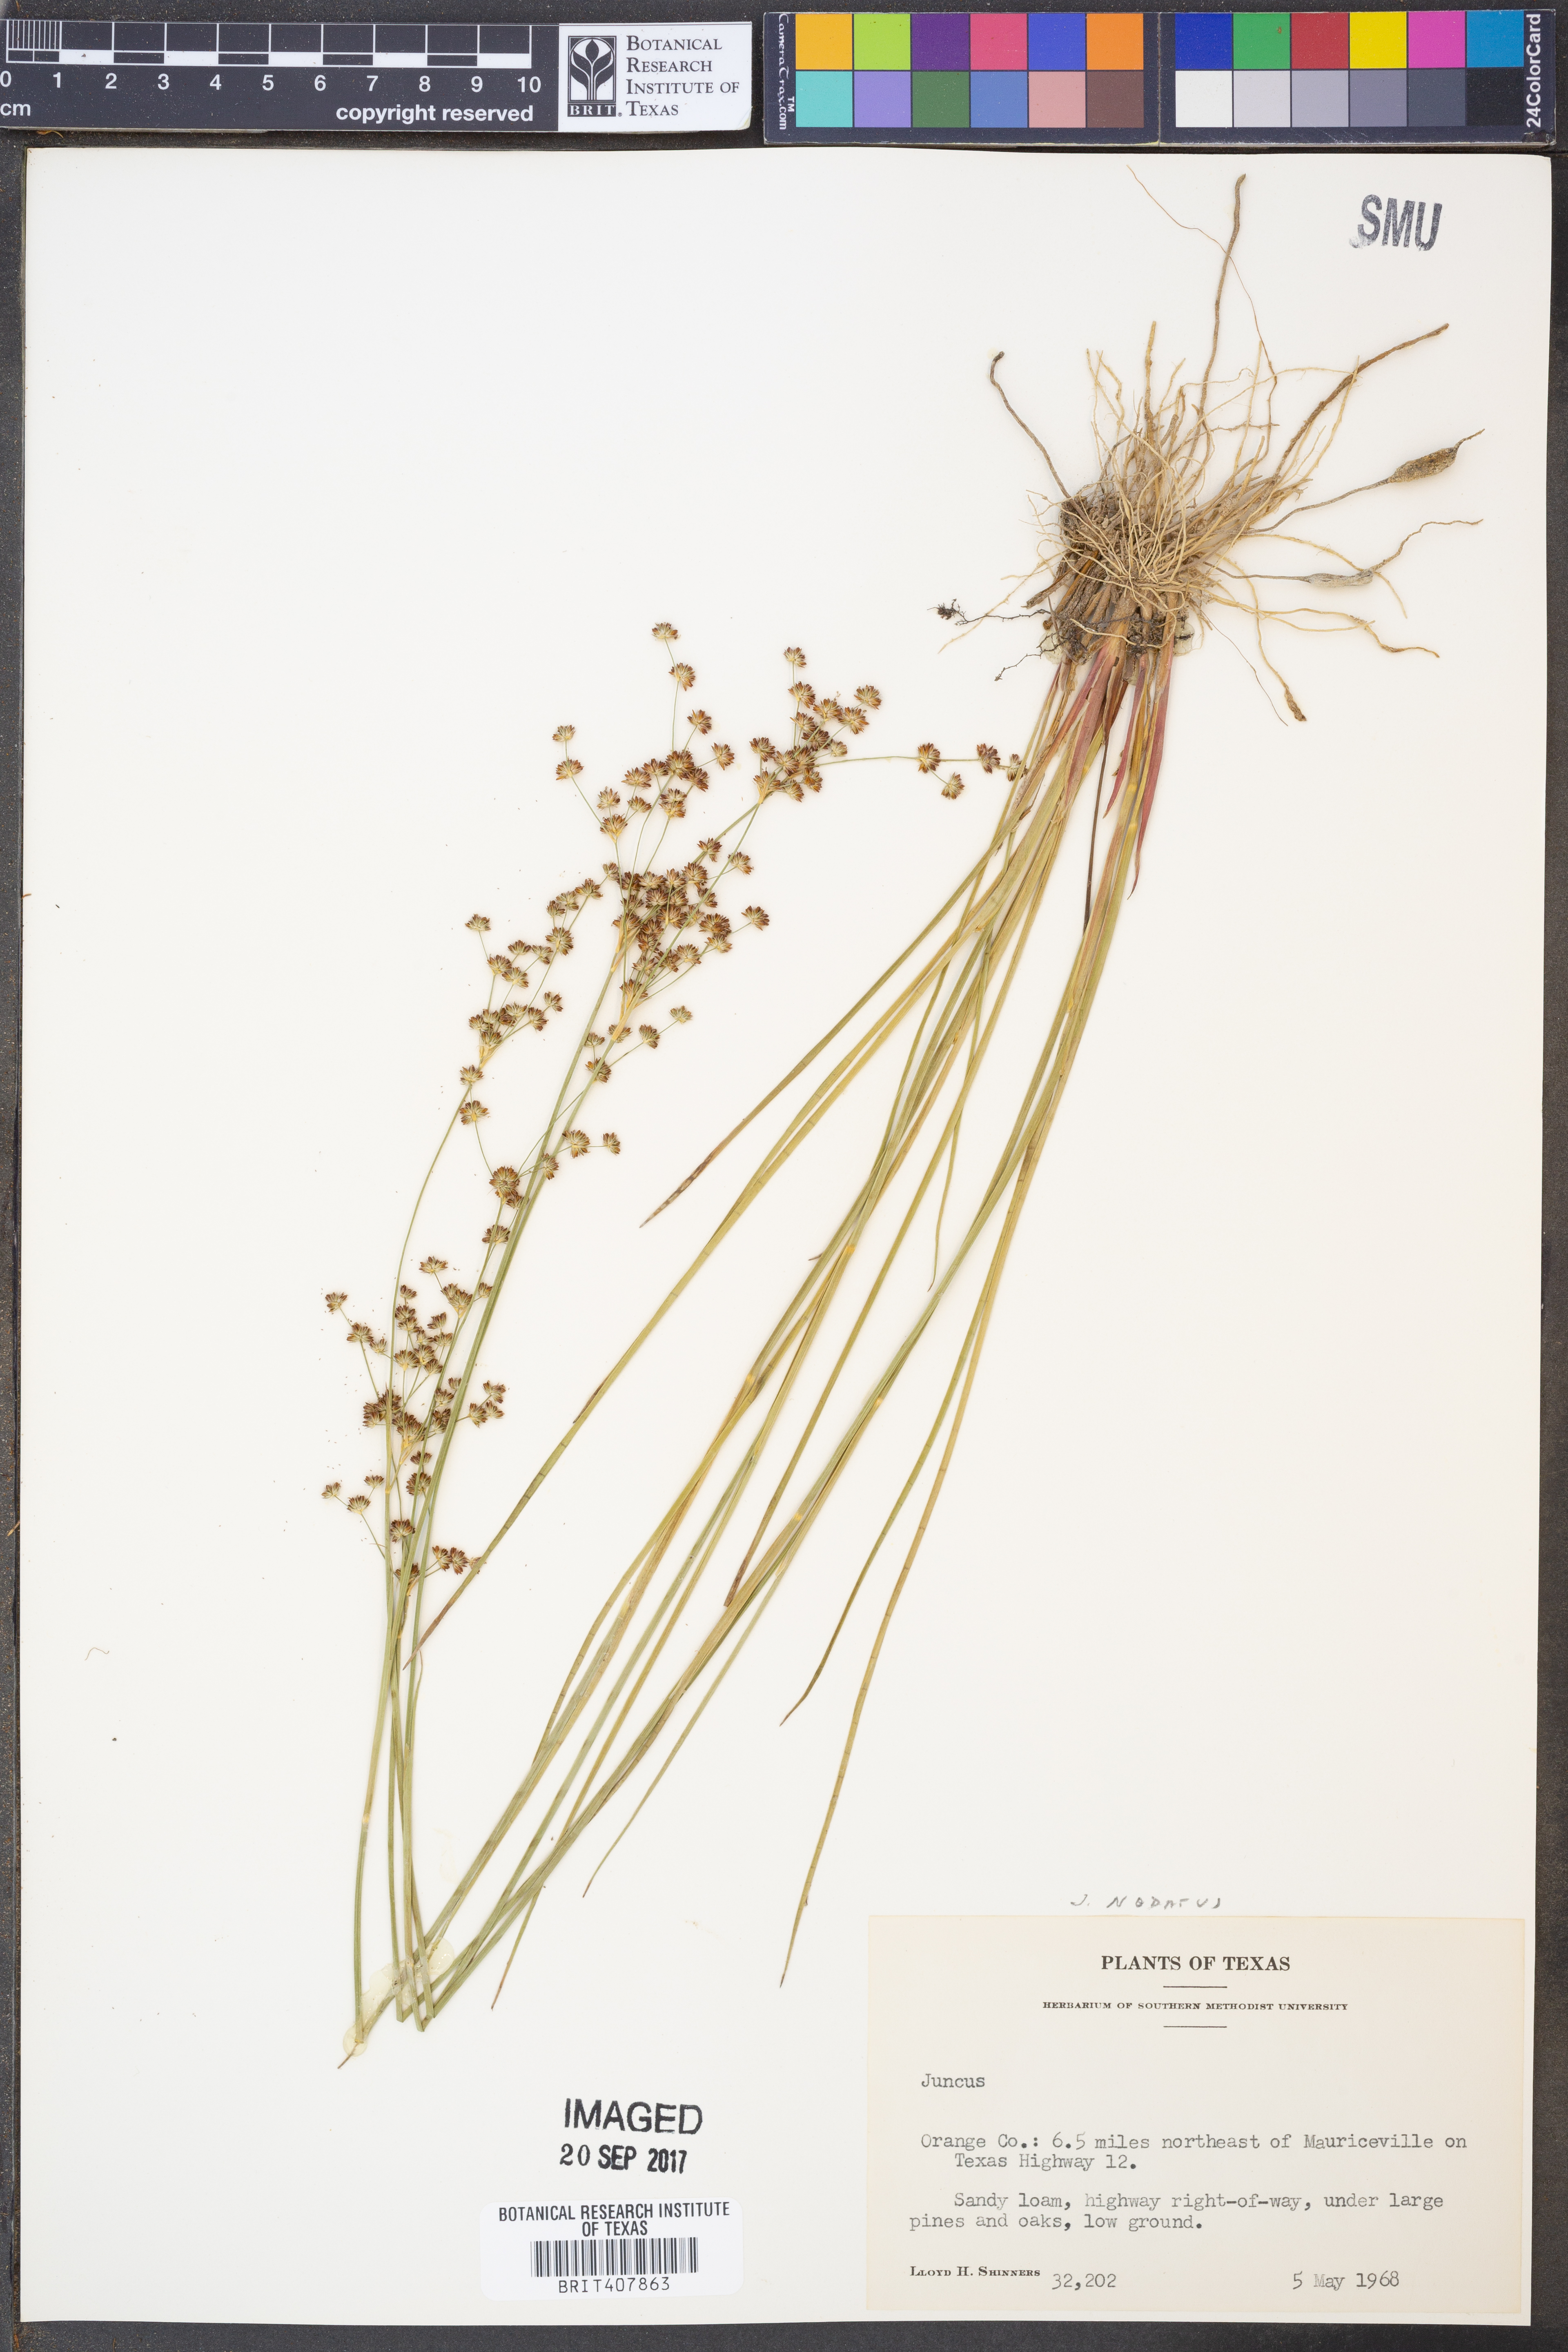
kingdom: Plantae
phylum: Tracheophyta
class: Liliopsida
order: Poales
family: Juncaceae
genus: Juncus
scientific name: Juncus nodatus
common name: Stout rush
